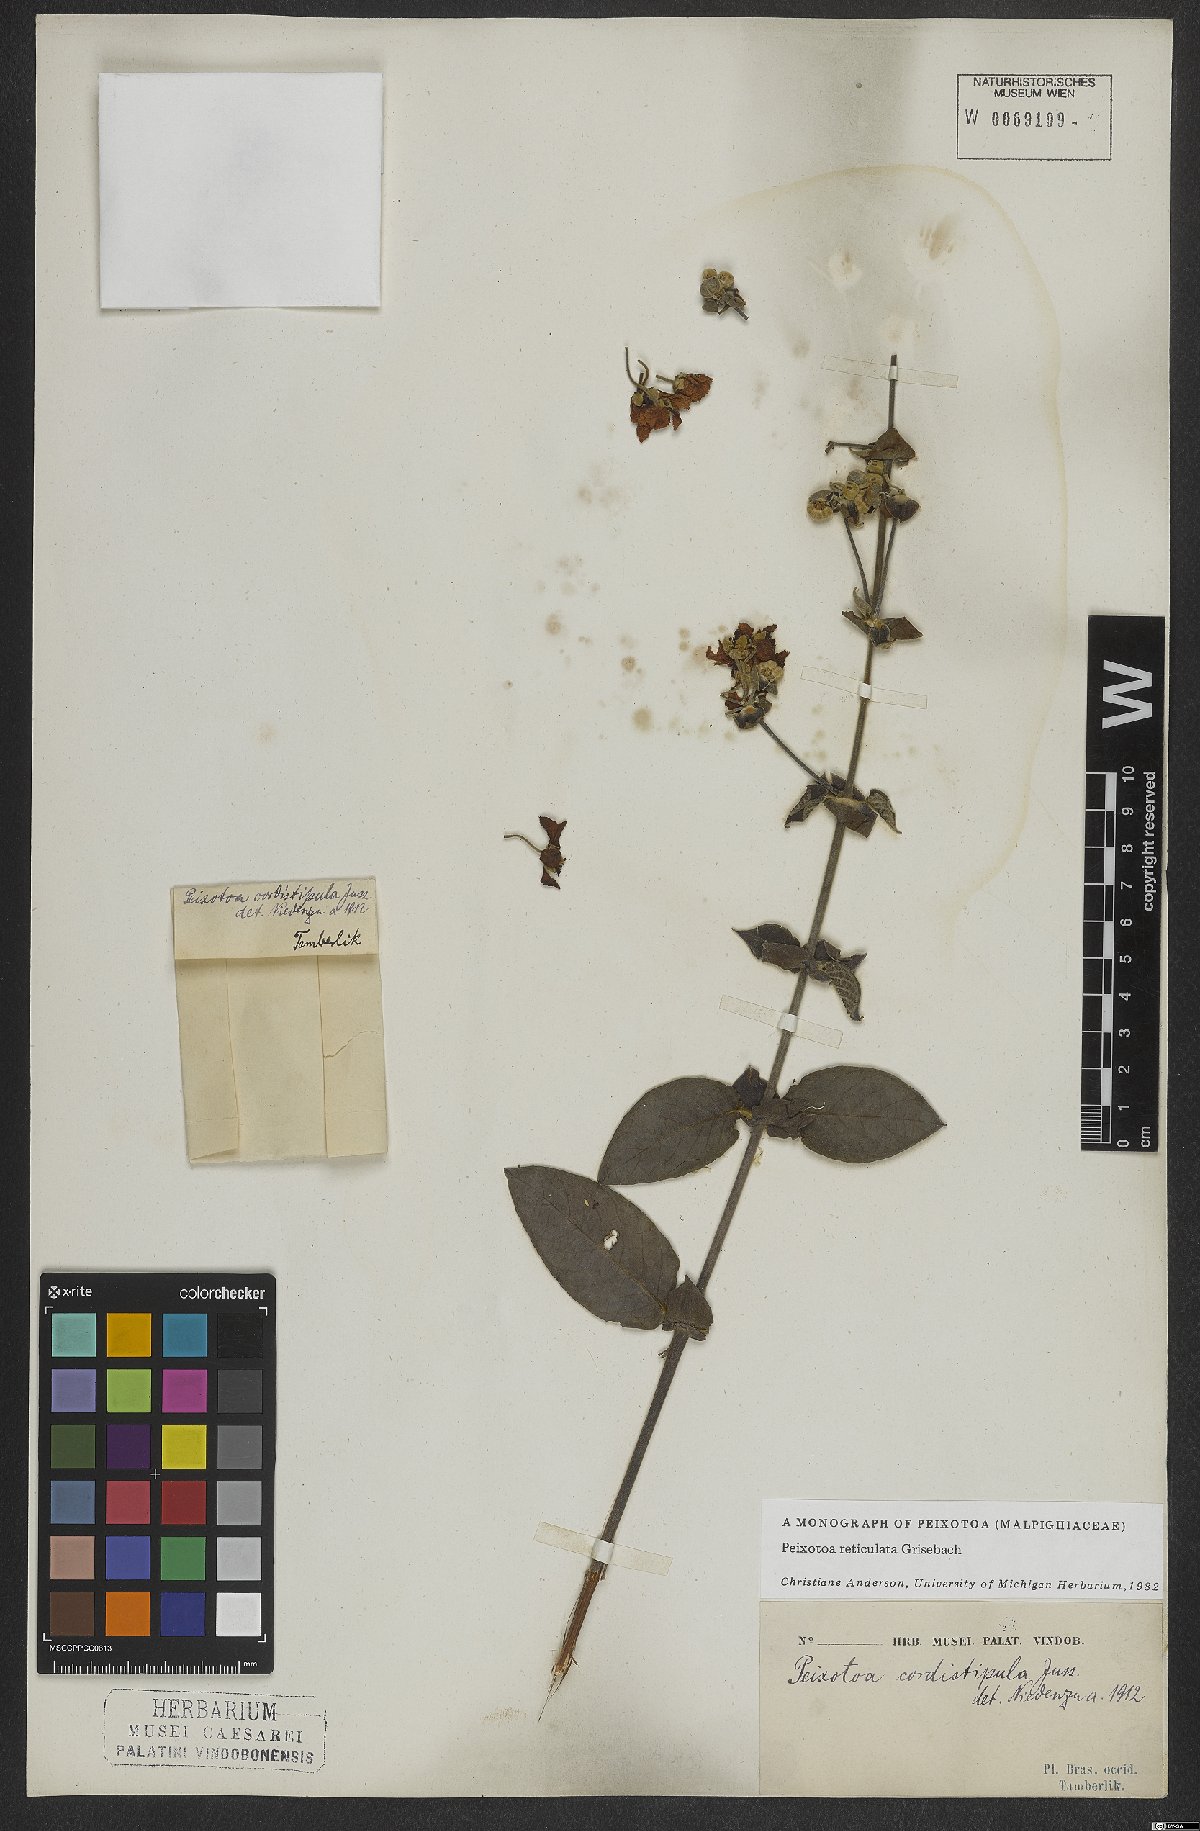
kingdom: Plantae
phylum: Tracheophyta
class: Magnoliopsida
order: Malpighiales
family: Malpighiaceae
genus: Peixotoa
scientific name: Peixotoa reticulata
